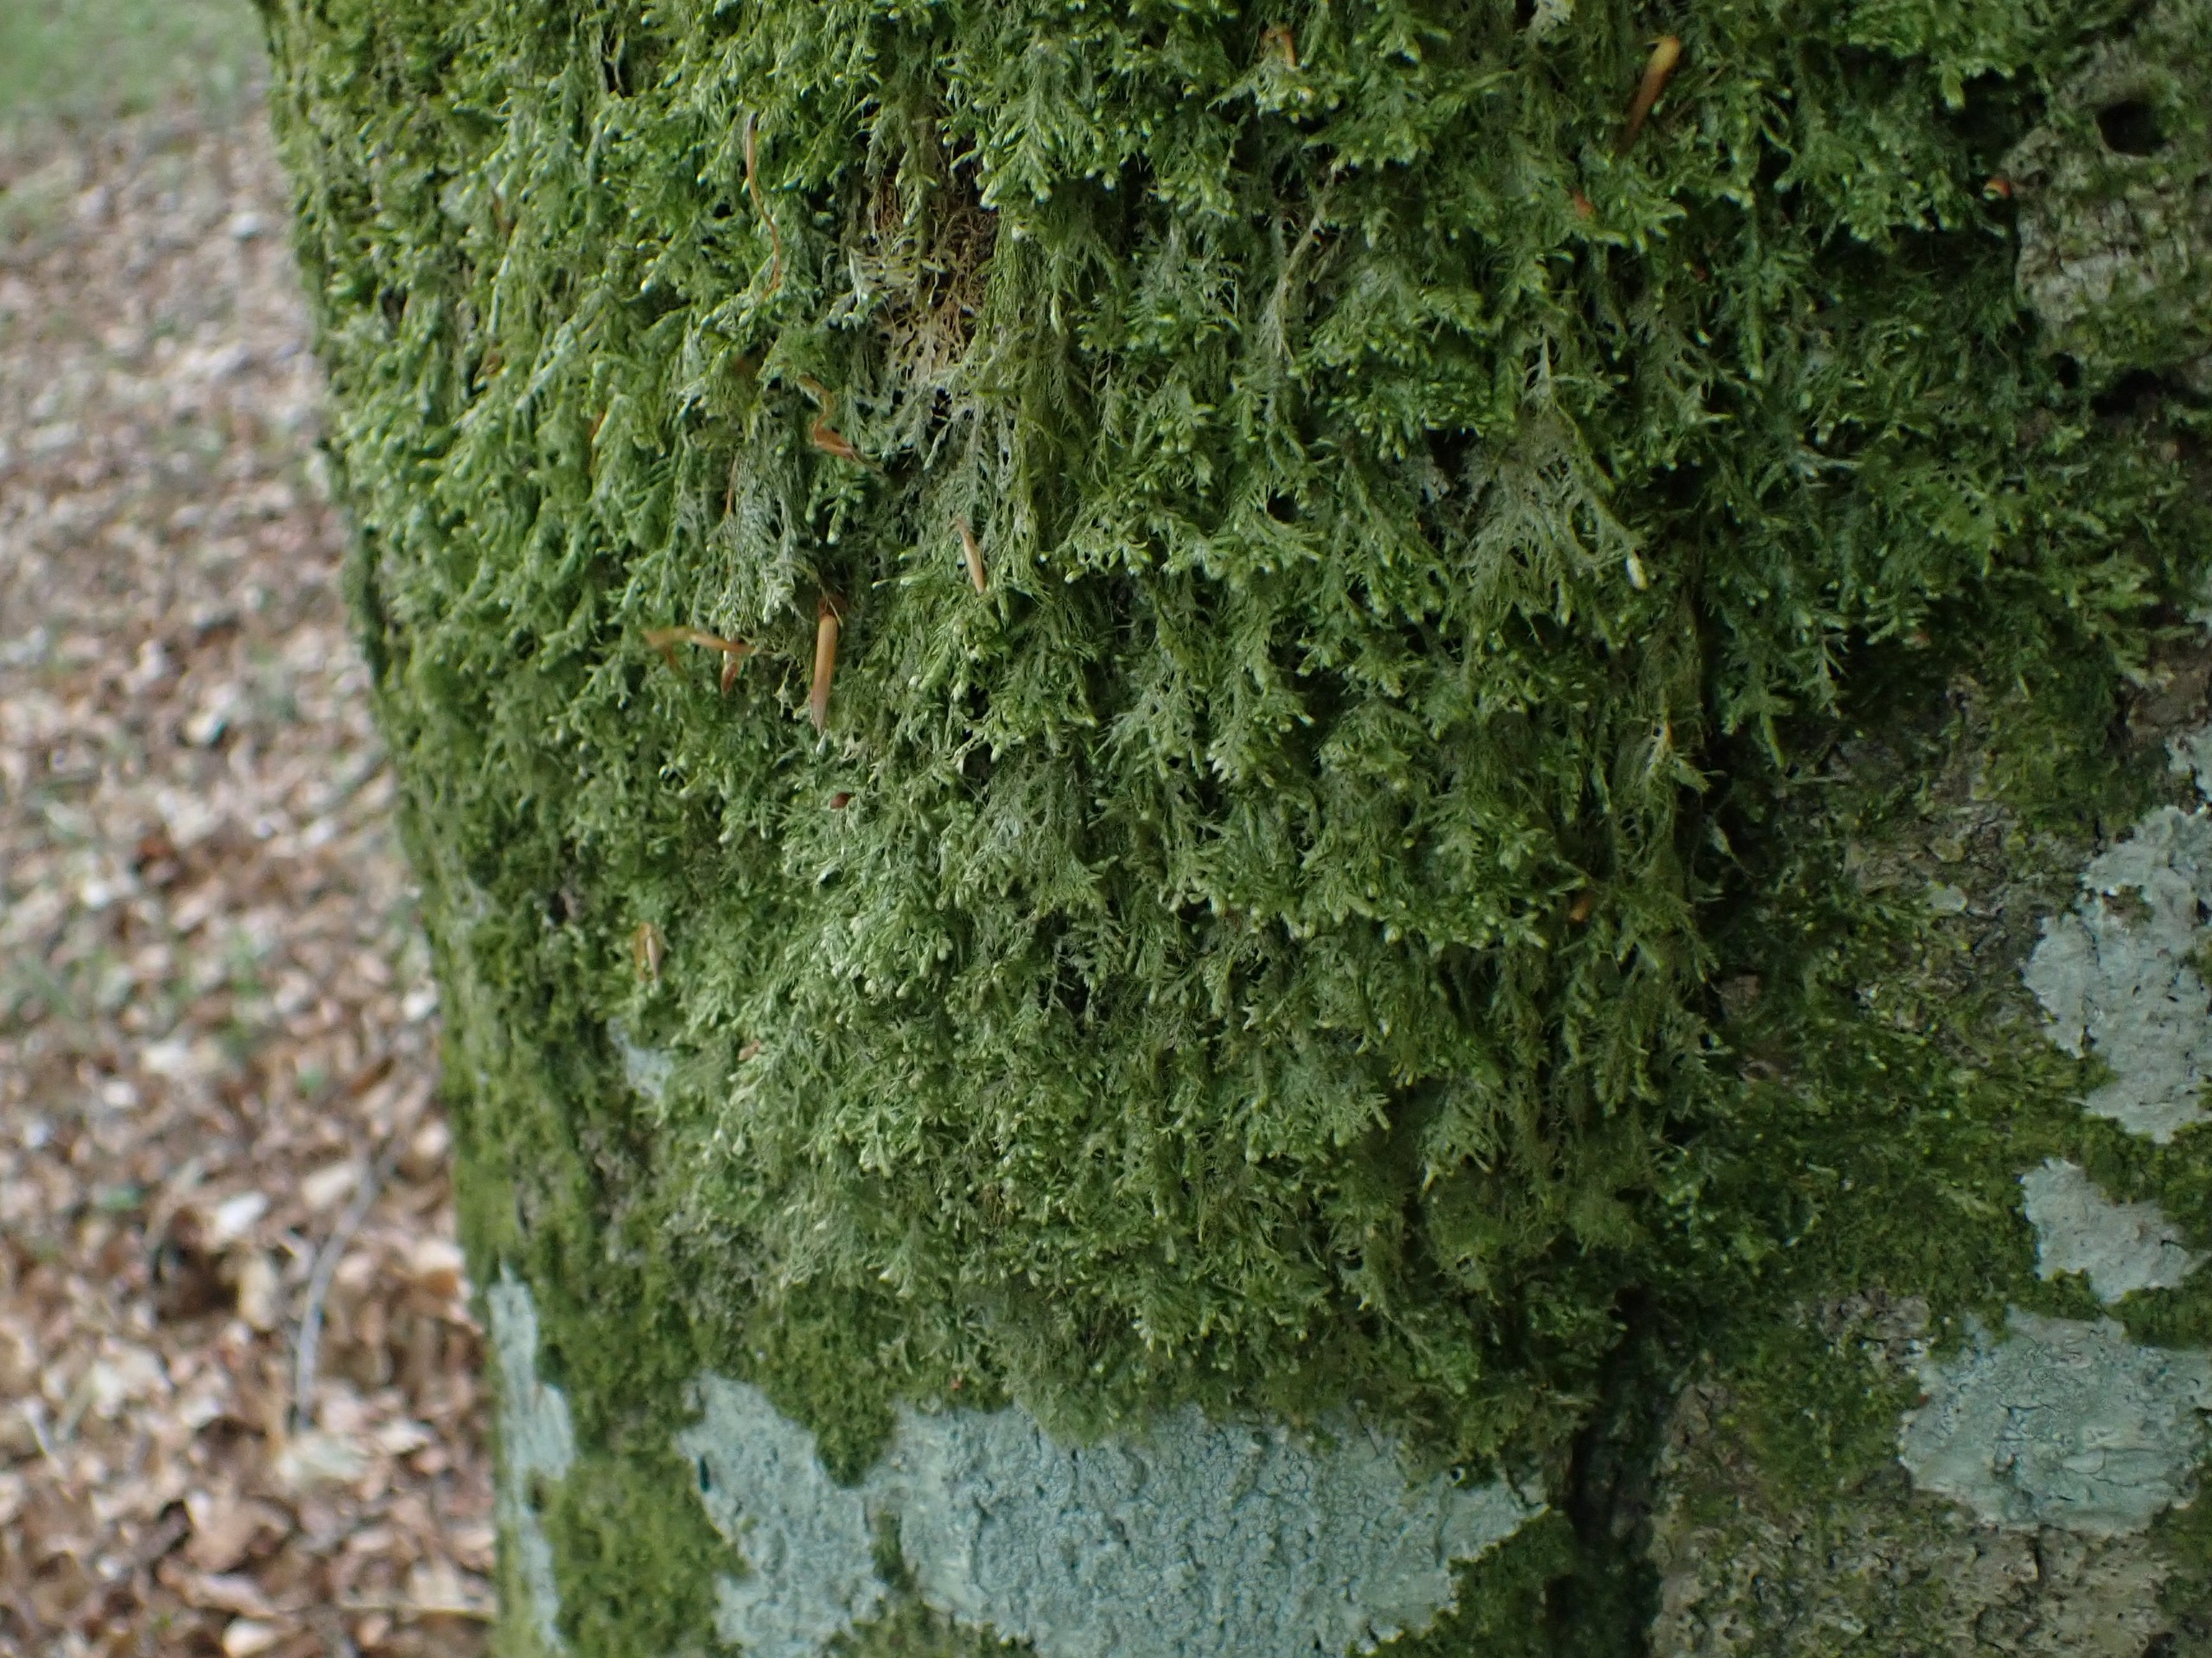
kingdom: Plantae
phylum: Bryophyta
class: Bryopsida
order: Hypnales
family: Neckeraceae
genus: Alleniella
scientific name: Alleniella complanata
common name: Almindelig fladmos
